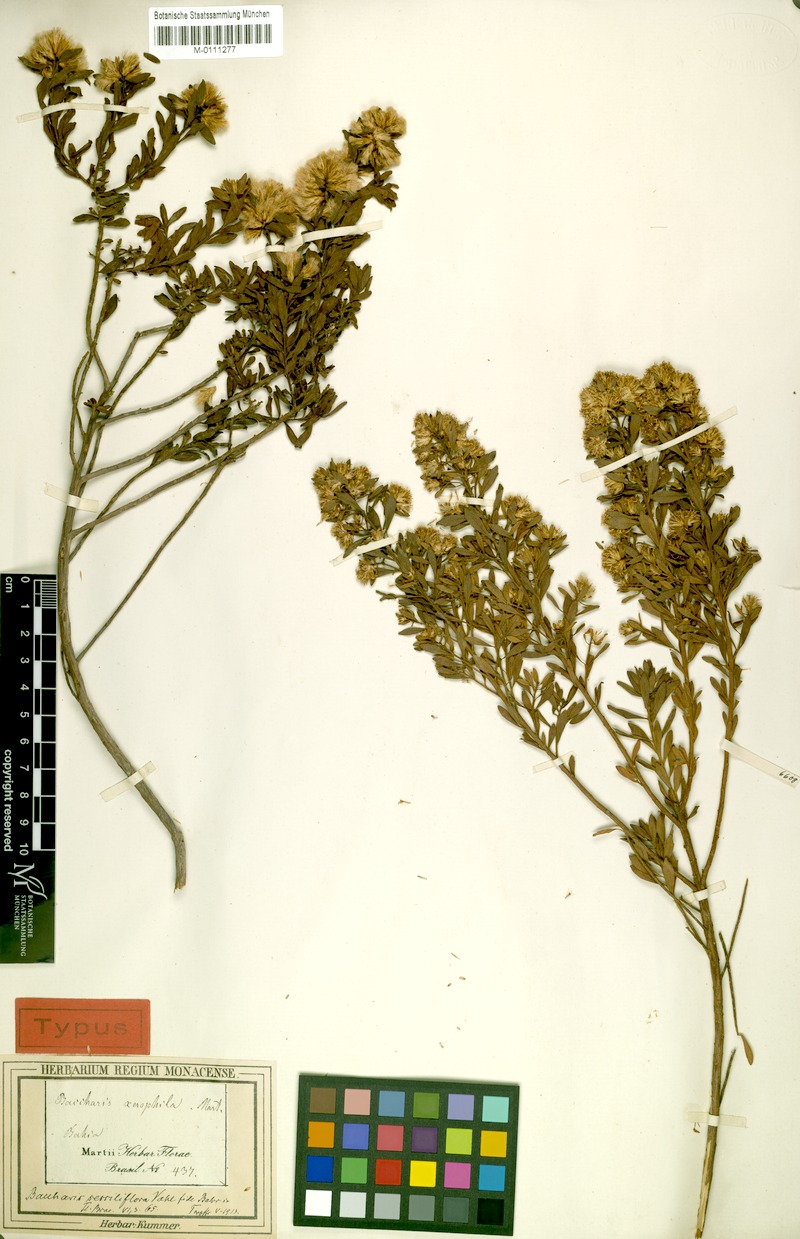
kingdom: Plantae
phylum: Tracheophyta
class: Magnoliopsida
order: Asterales
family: Asteraceae
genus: Baccharis
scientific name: Baccharis brevifolia
